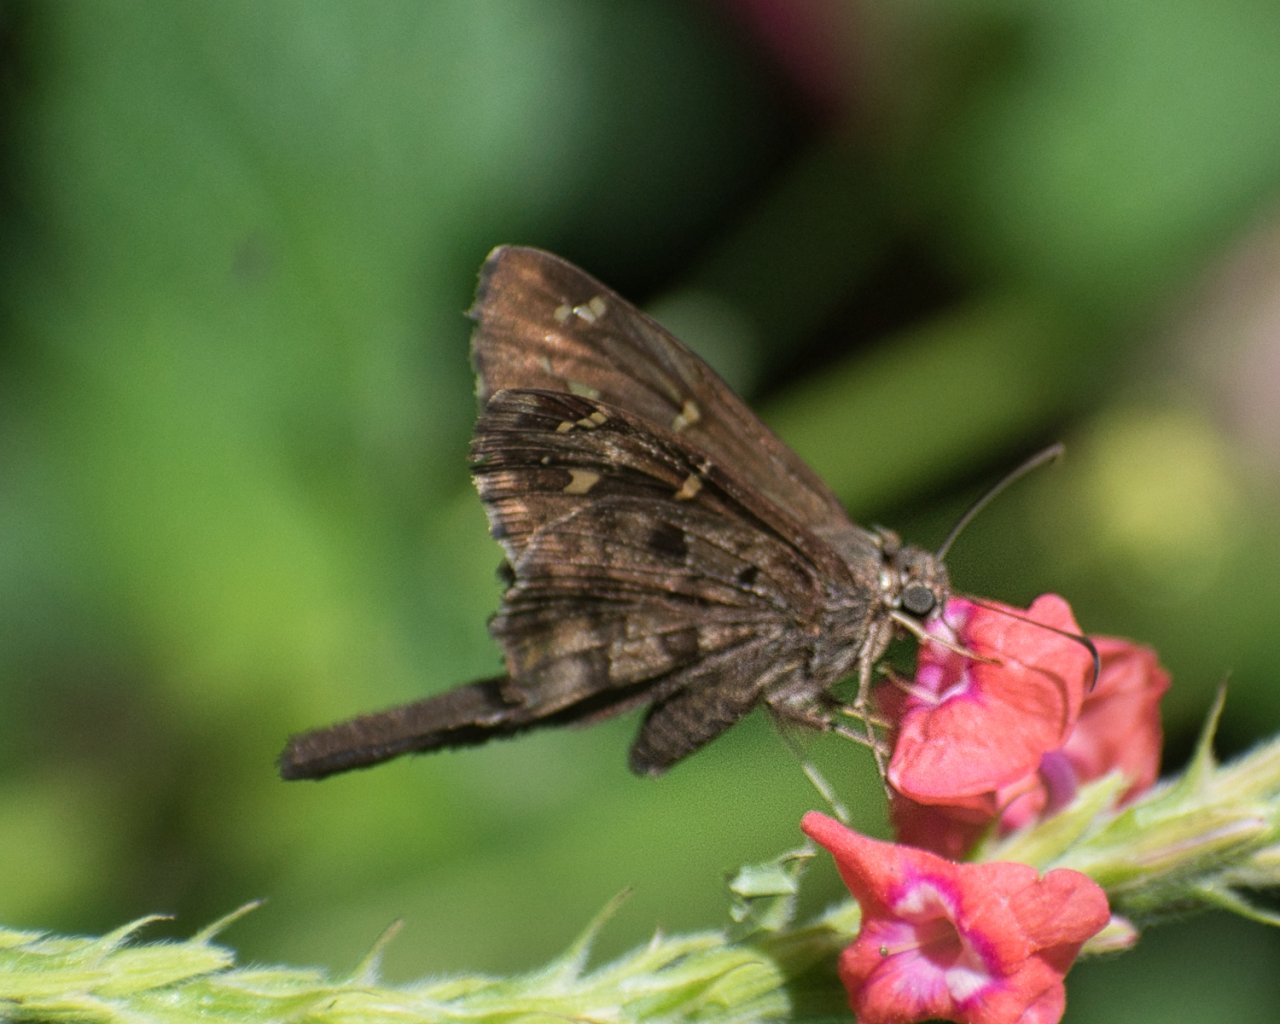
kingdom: Animalia
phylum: Arthropoda
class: Insecta
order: Lepidoptera
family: Hesperiidae
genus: Urbanus
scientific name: Urbanus dorantes
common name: Dorantes Longtail
